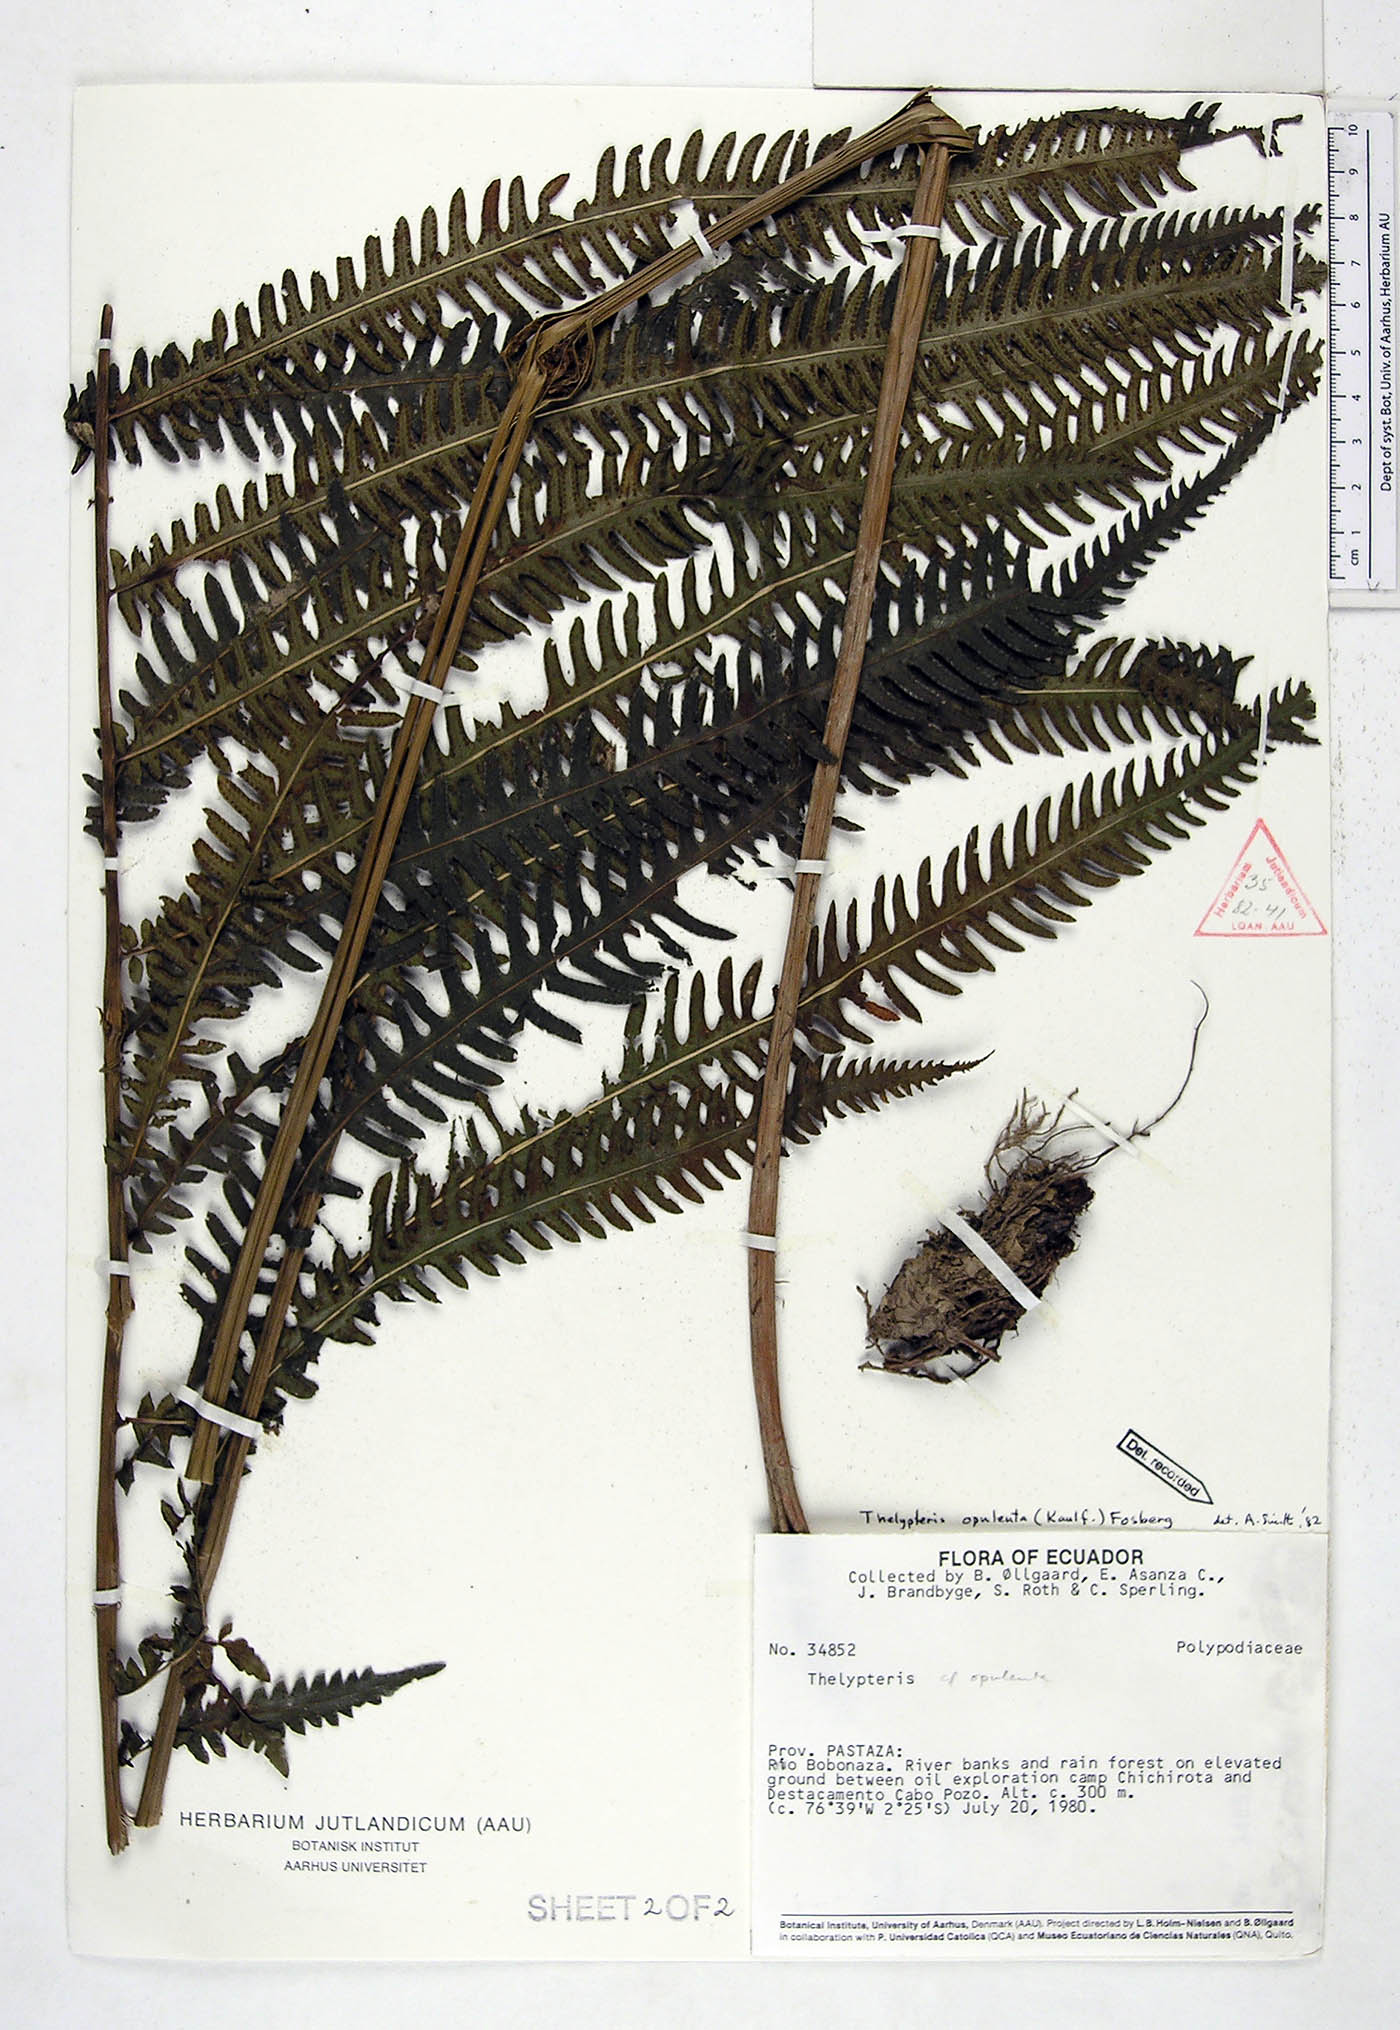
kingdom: Plantae
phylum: Tracheophyta
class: Polypodiopsida
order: Polypodiales
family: Thelypteridaceae
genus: Amblovenatum
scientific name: Amblovenatum opulentum
